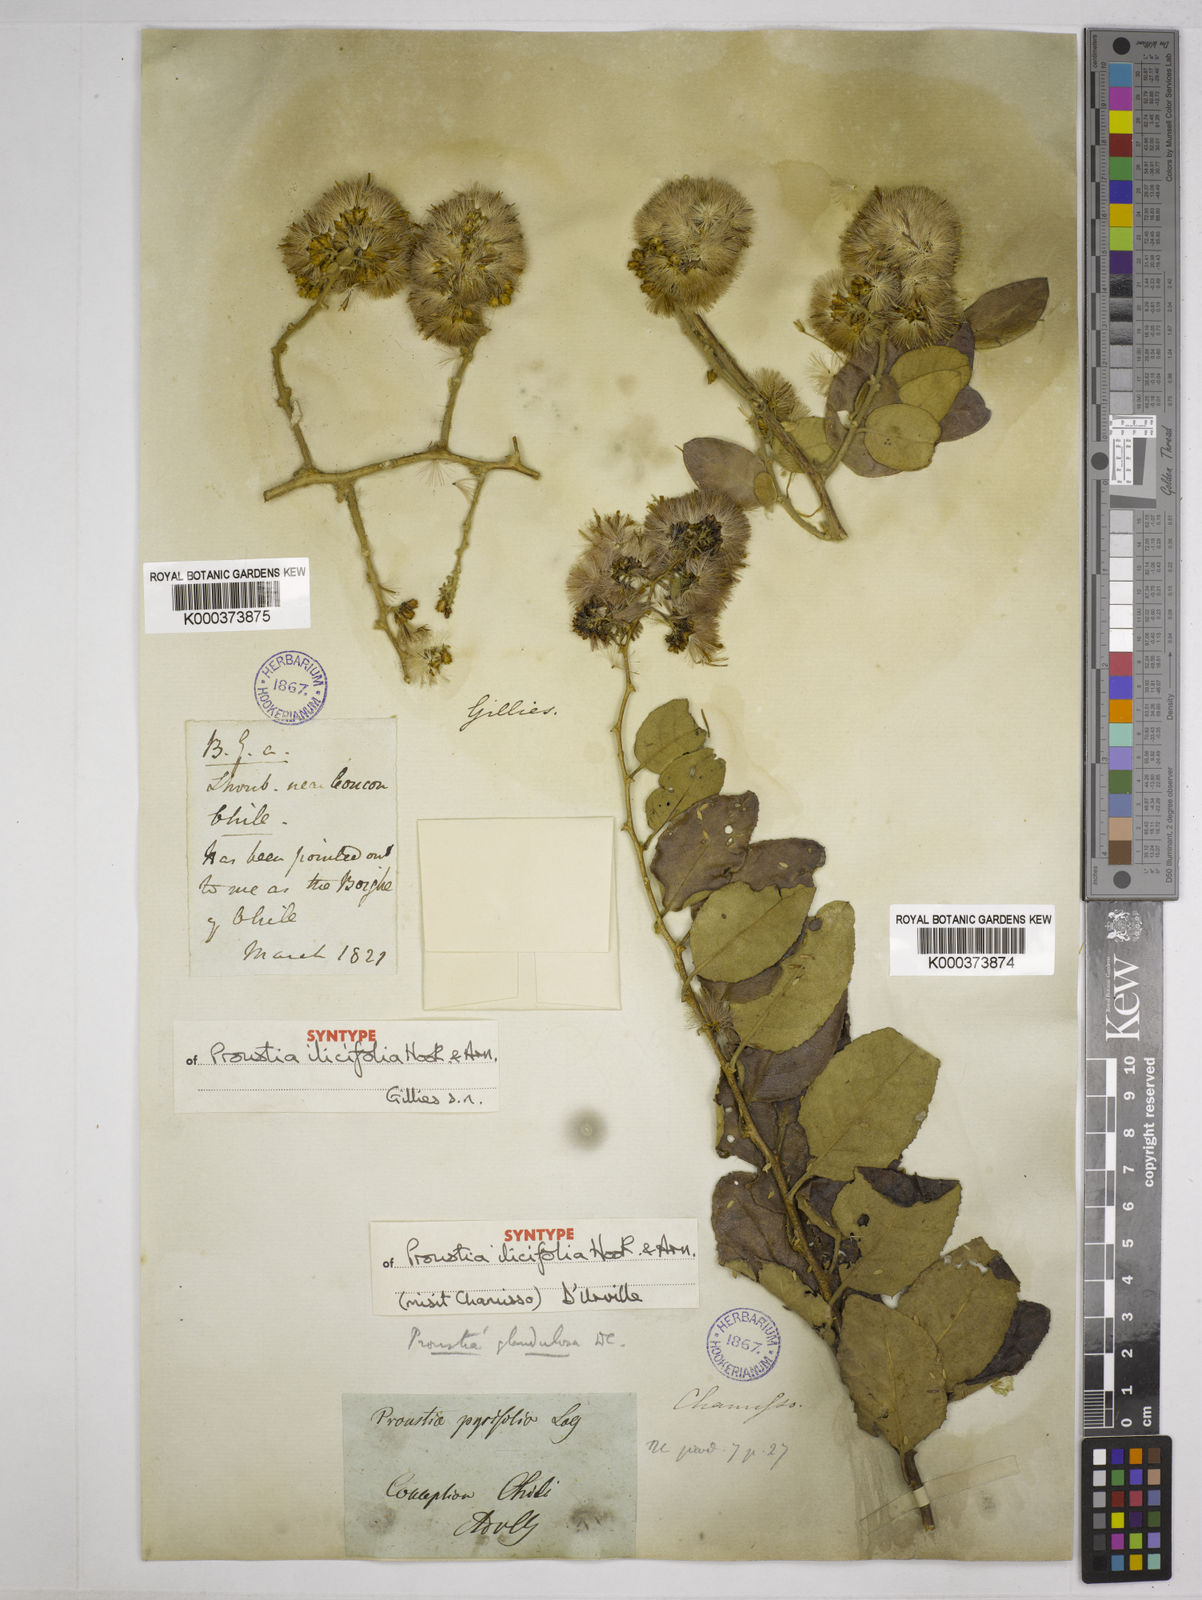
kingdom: Plantae
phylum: Tracheophyta
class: Magnoliopsida
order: Asterales
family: Asteraceae
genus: Spinoliva
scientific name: Spinoliva ilicifolia
